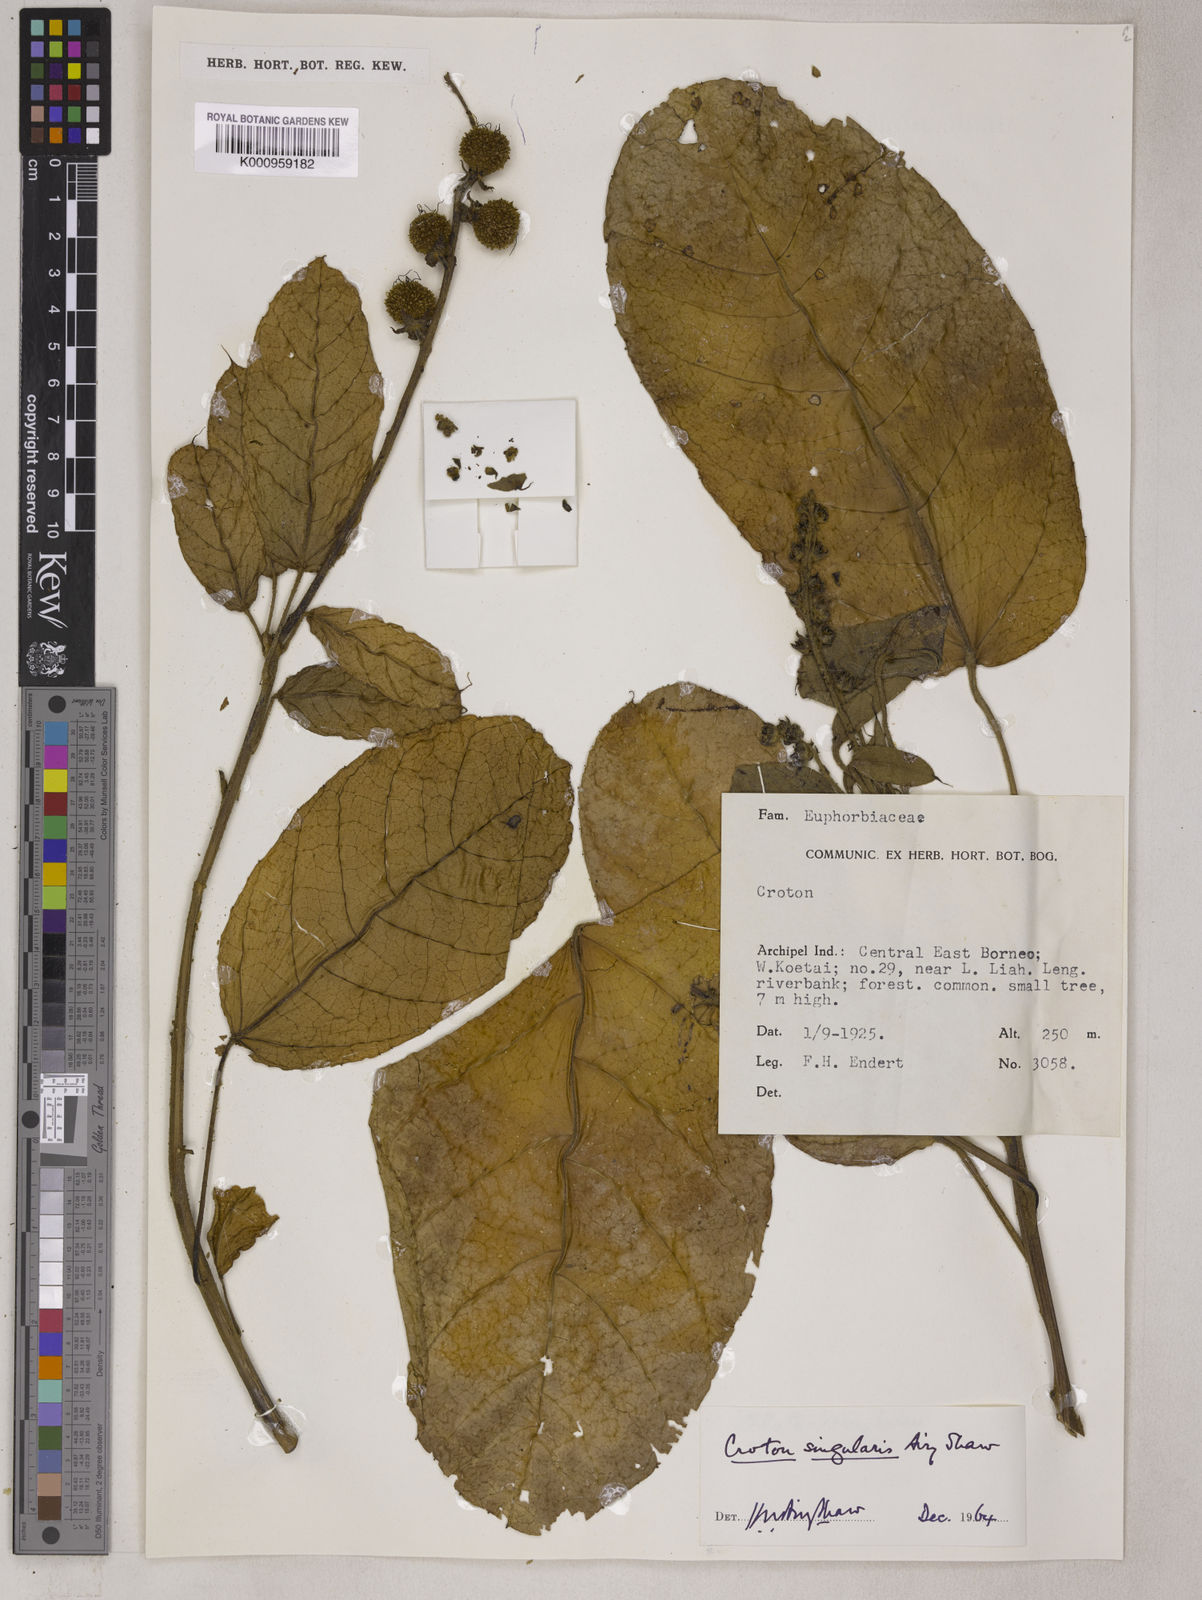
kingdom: Plantae
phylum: Tracheophyta
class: Magnoliopsida
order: Malpighiales
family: Euphorbiaceae
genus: Croton
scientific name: Croton singularis
